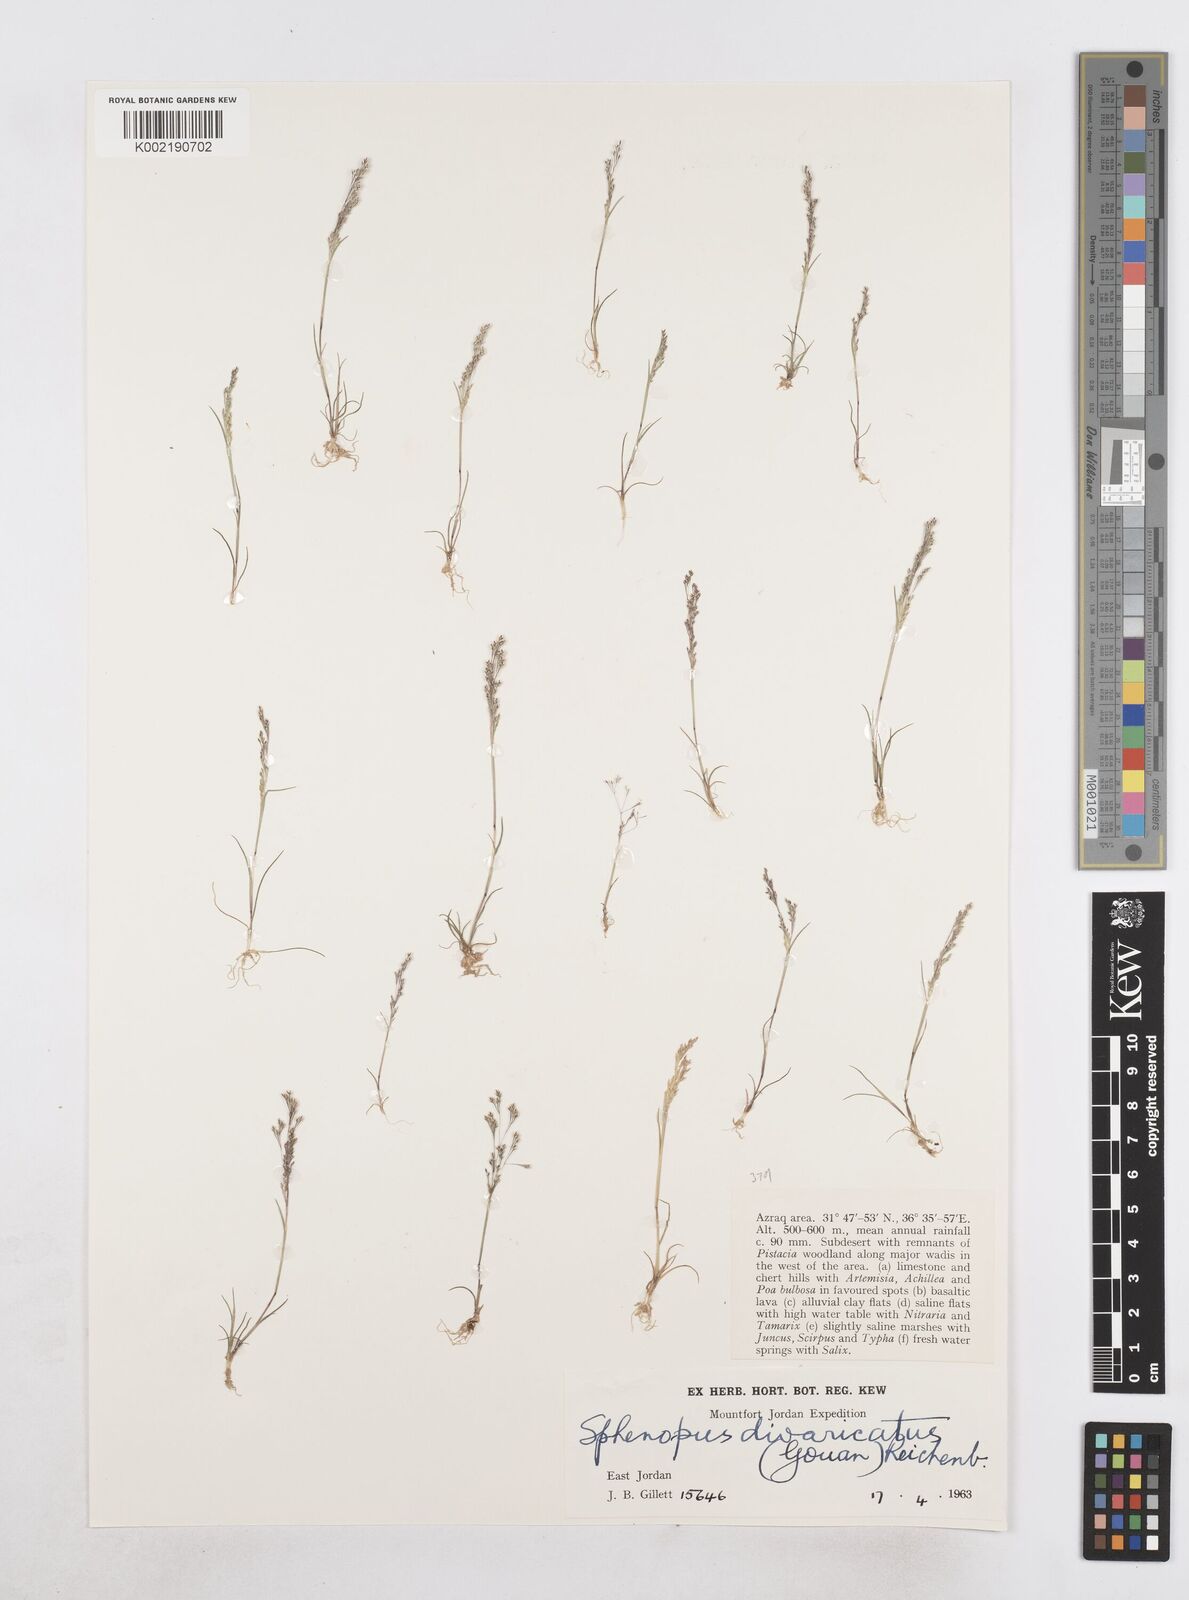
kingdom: Plantae
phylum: Tracheophyta
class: Liliopsida
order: Poales
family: Poaceae
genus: Sphenopus
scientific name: Sphenopus divaricatus
